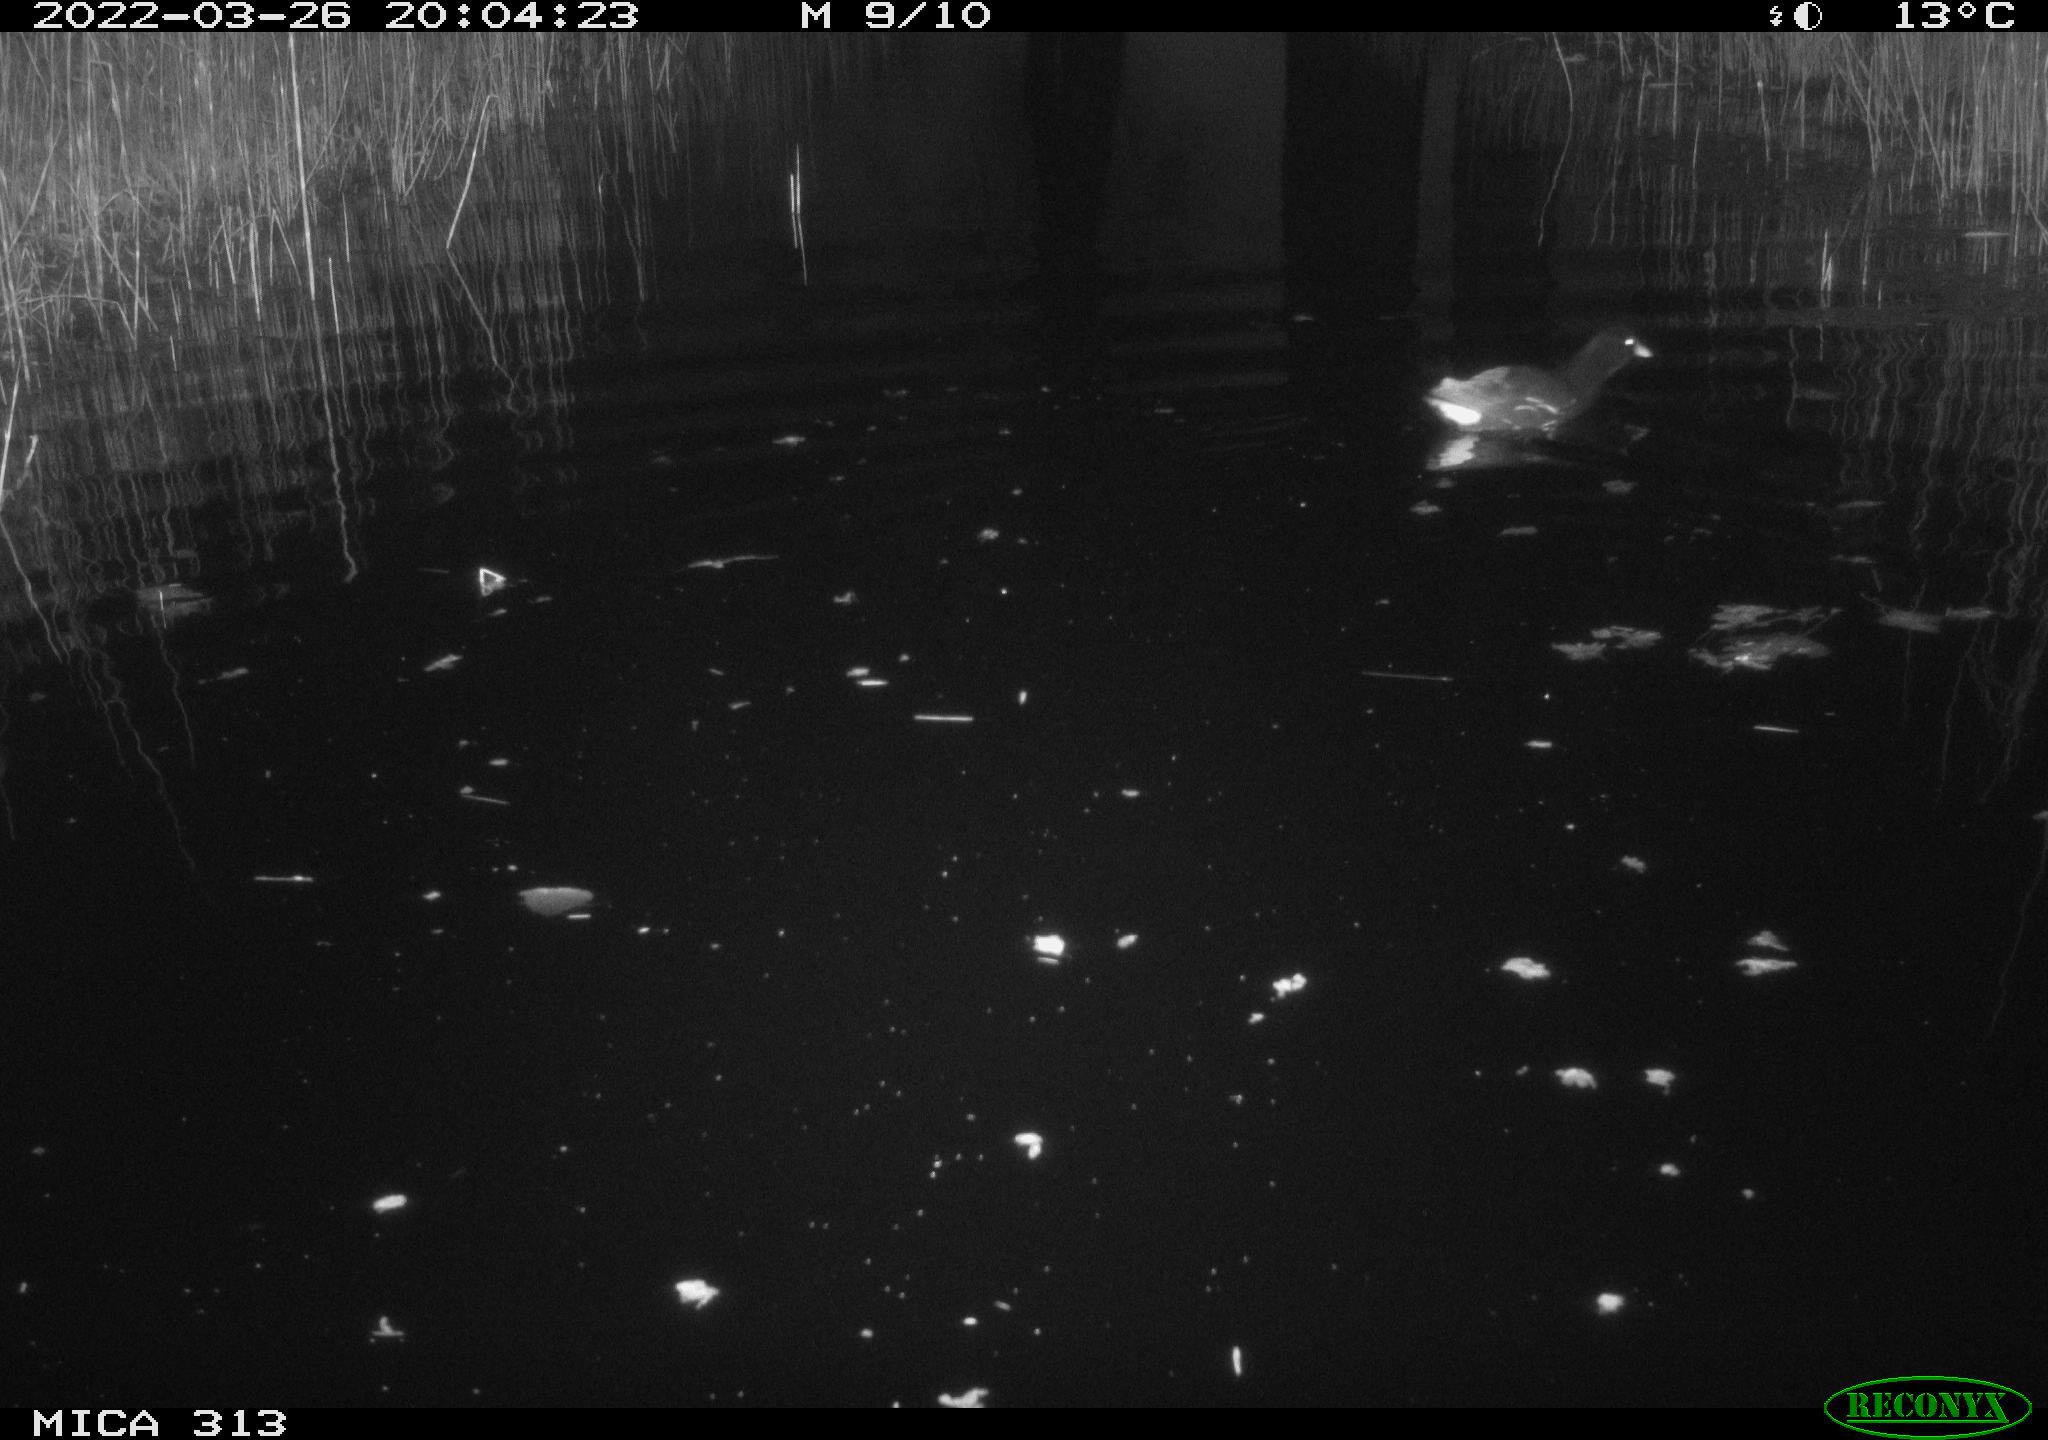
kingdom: Animalia
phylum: Chordata
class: Aves
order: Gruiformes
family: Rallidae
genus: Gallinula
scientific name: Gallinula chloropus
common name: Common moorhen
